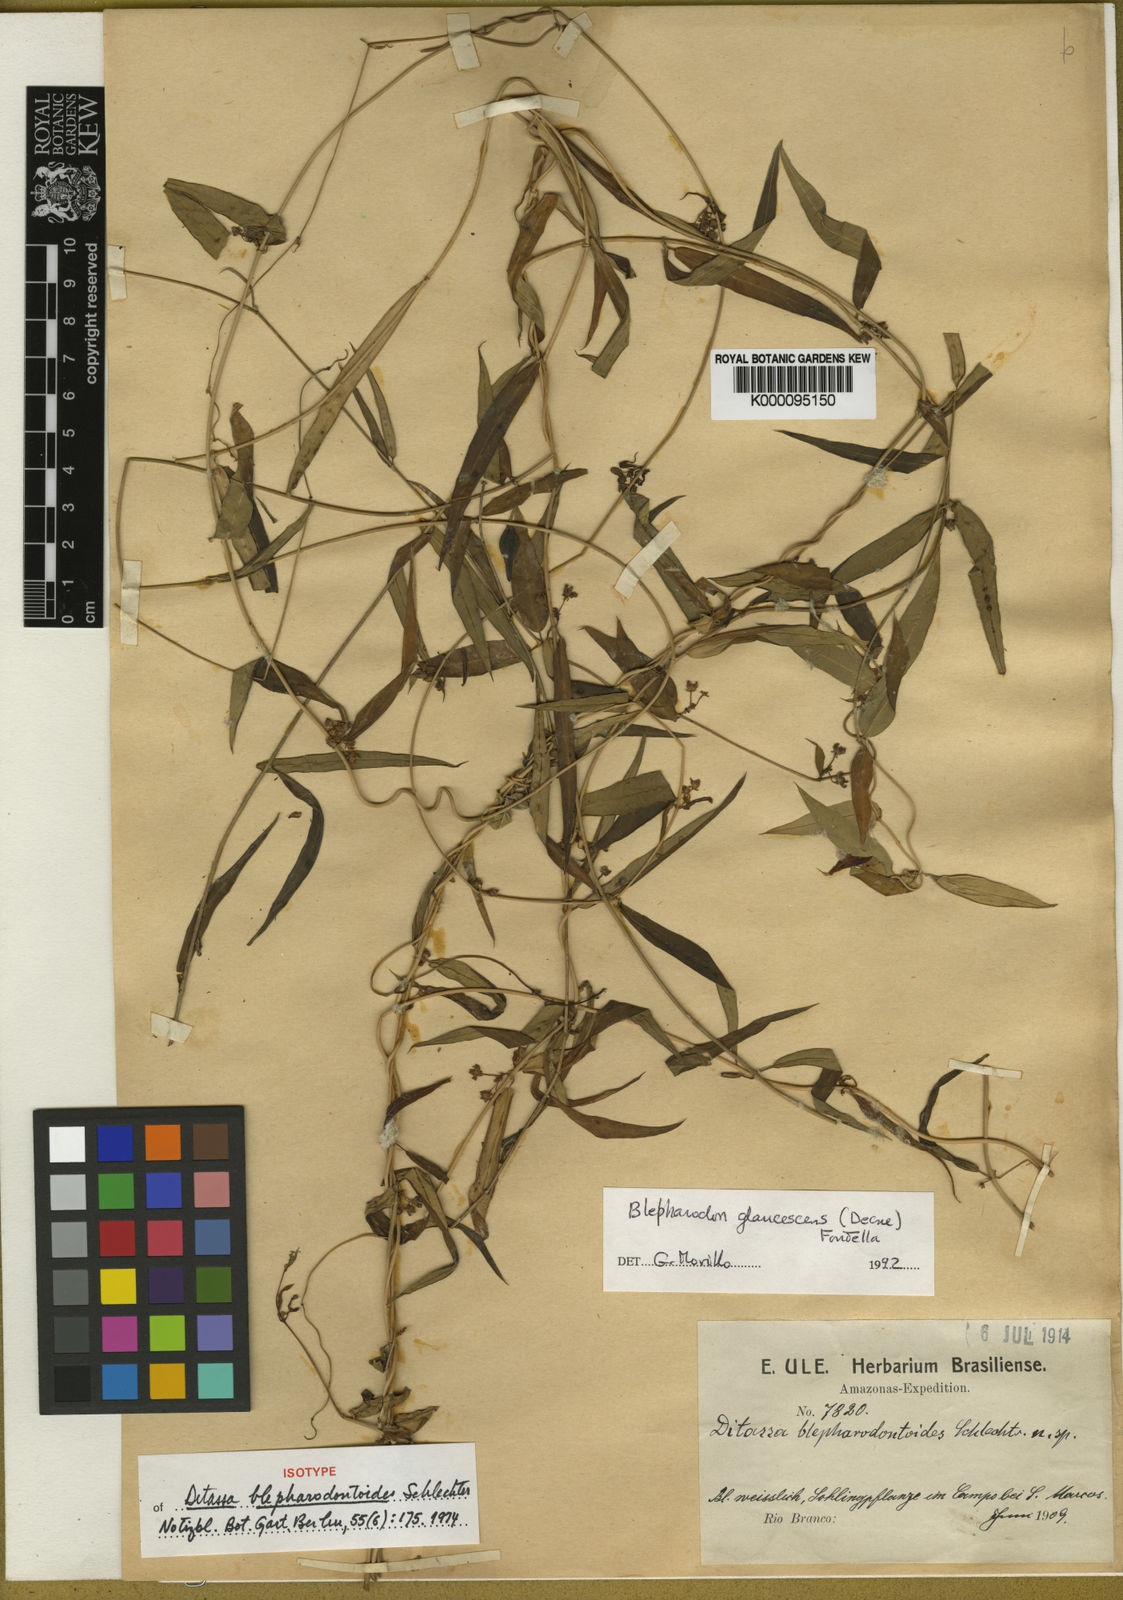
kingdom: Plantae
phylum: Tracheophyta
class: Magnoliopsida
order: Gentianales
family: Apocynaceae
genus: Blepharodon
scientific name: Blepharodon glaucescens
